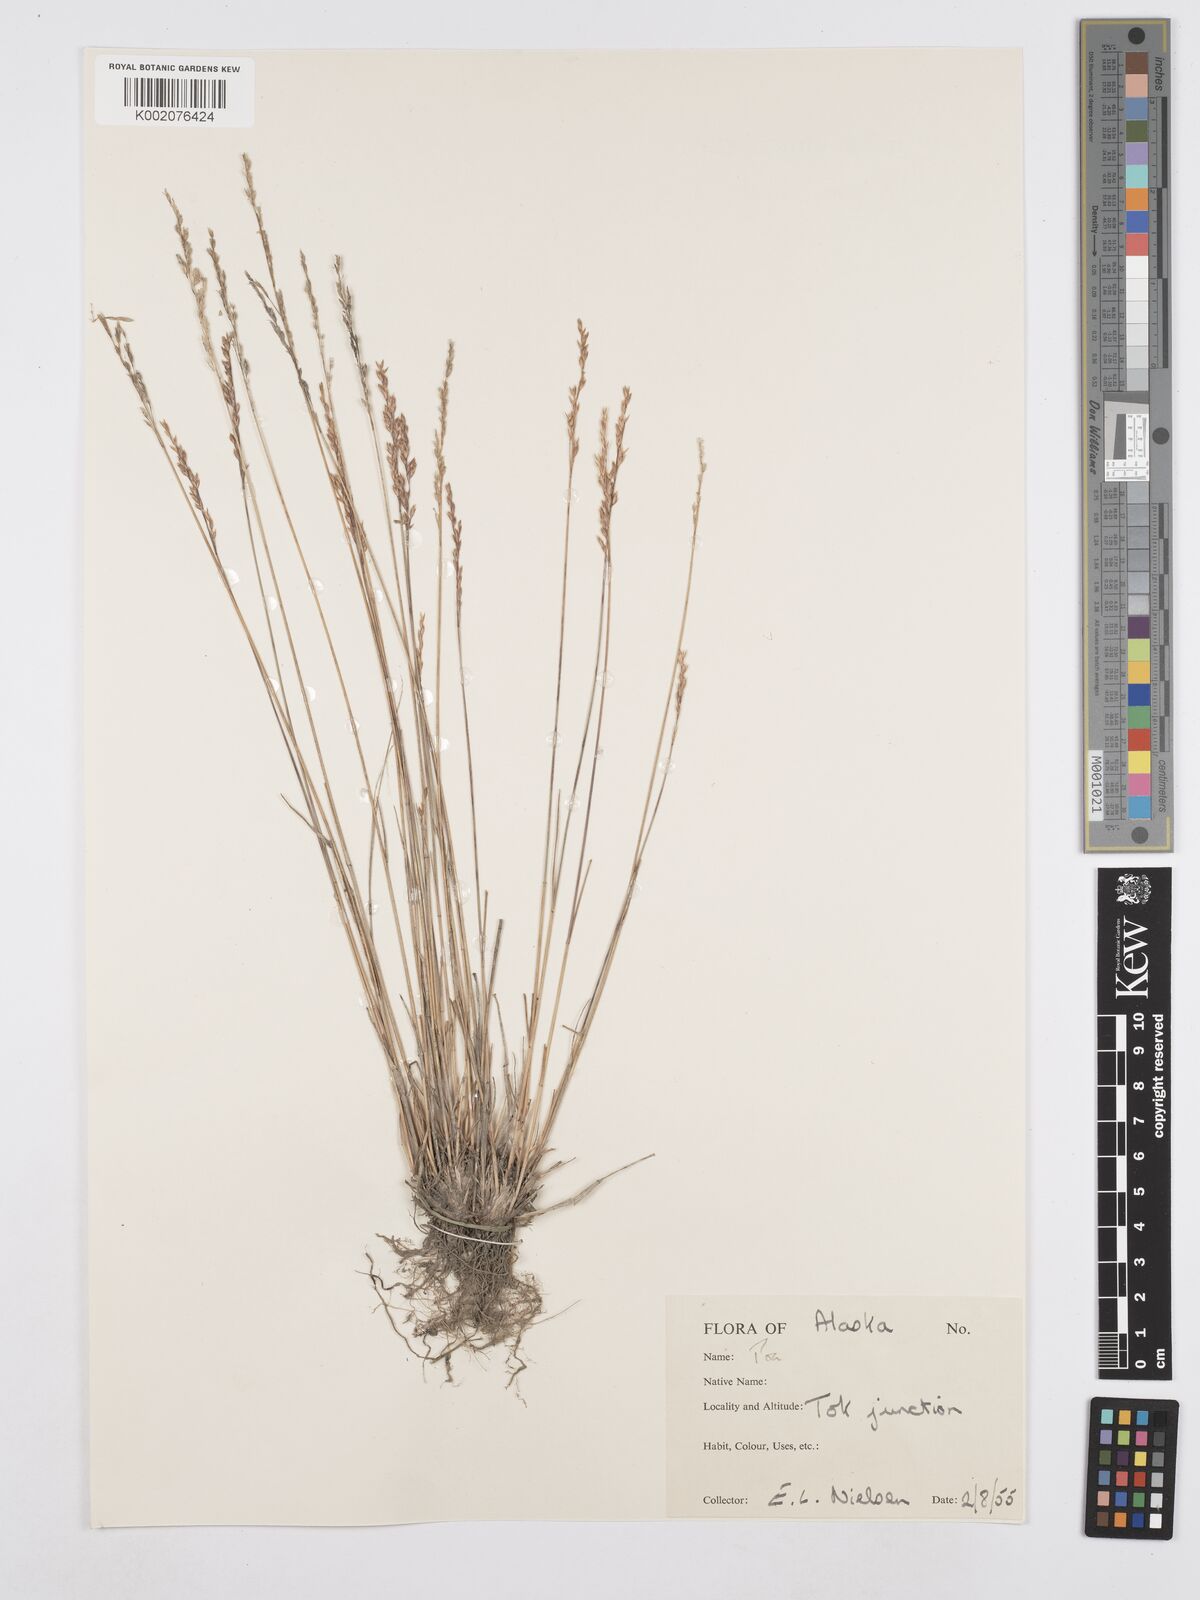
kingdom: Plantae
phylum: Tracheophyta
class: Liliopsida
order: Poales
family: Poaceae
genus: Poa
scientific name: Poa pratensis
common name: Kentucky bluegrass
